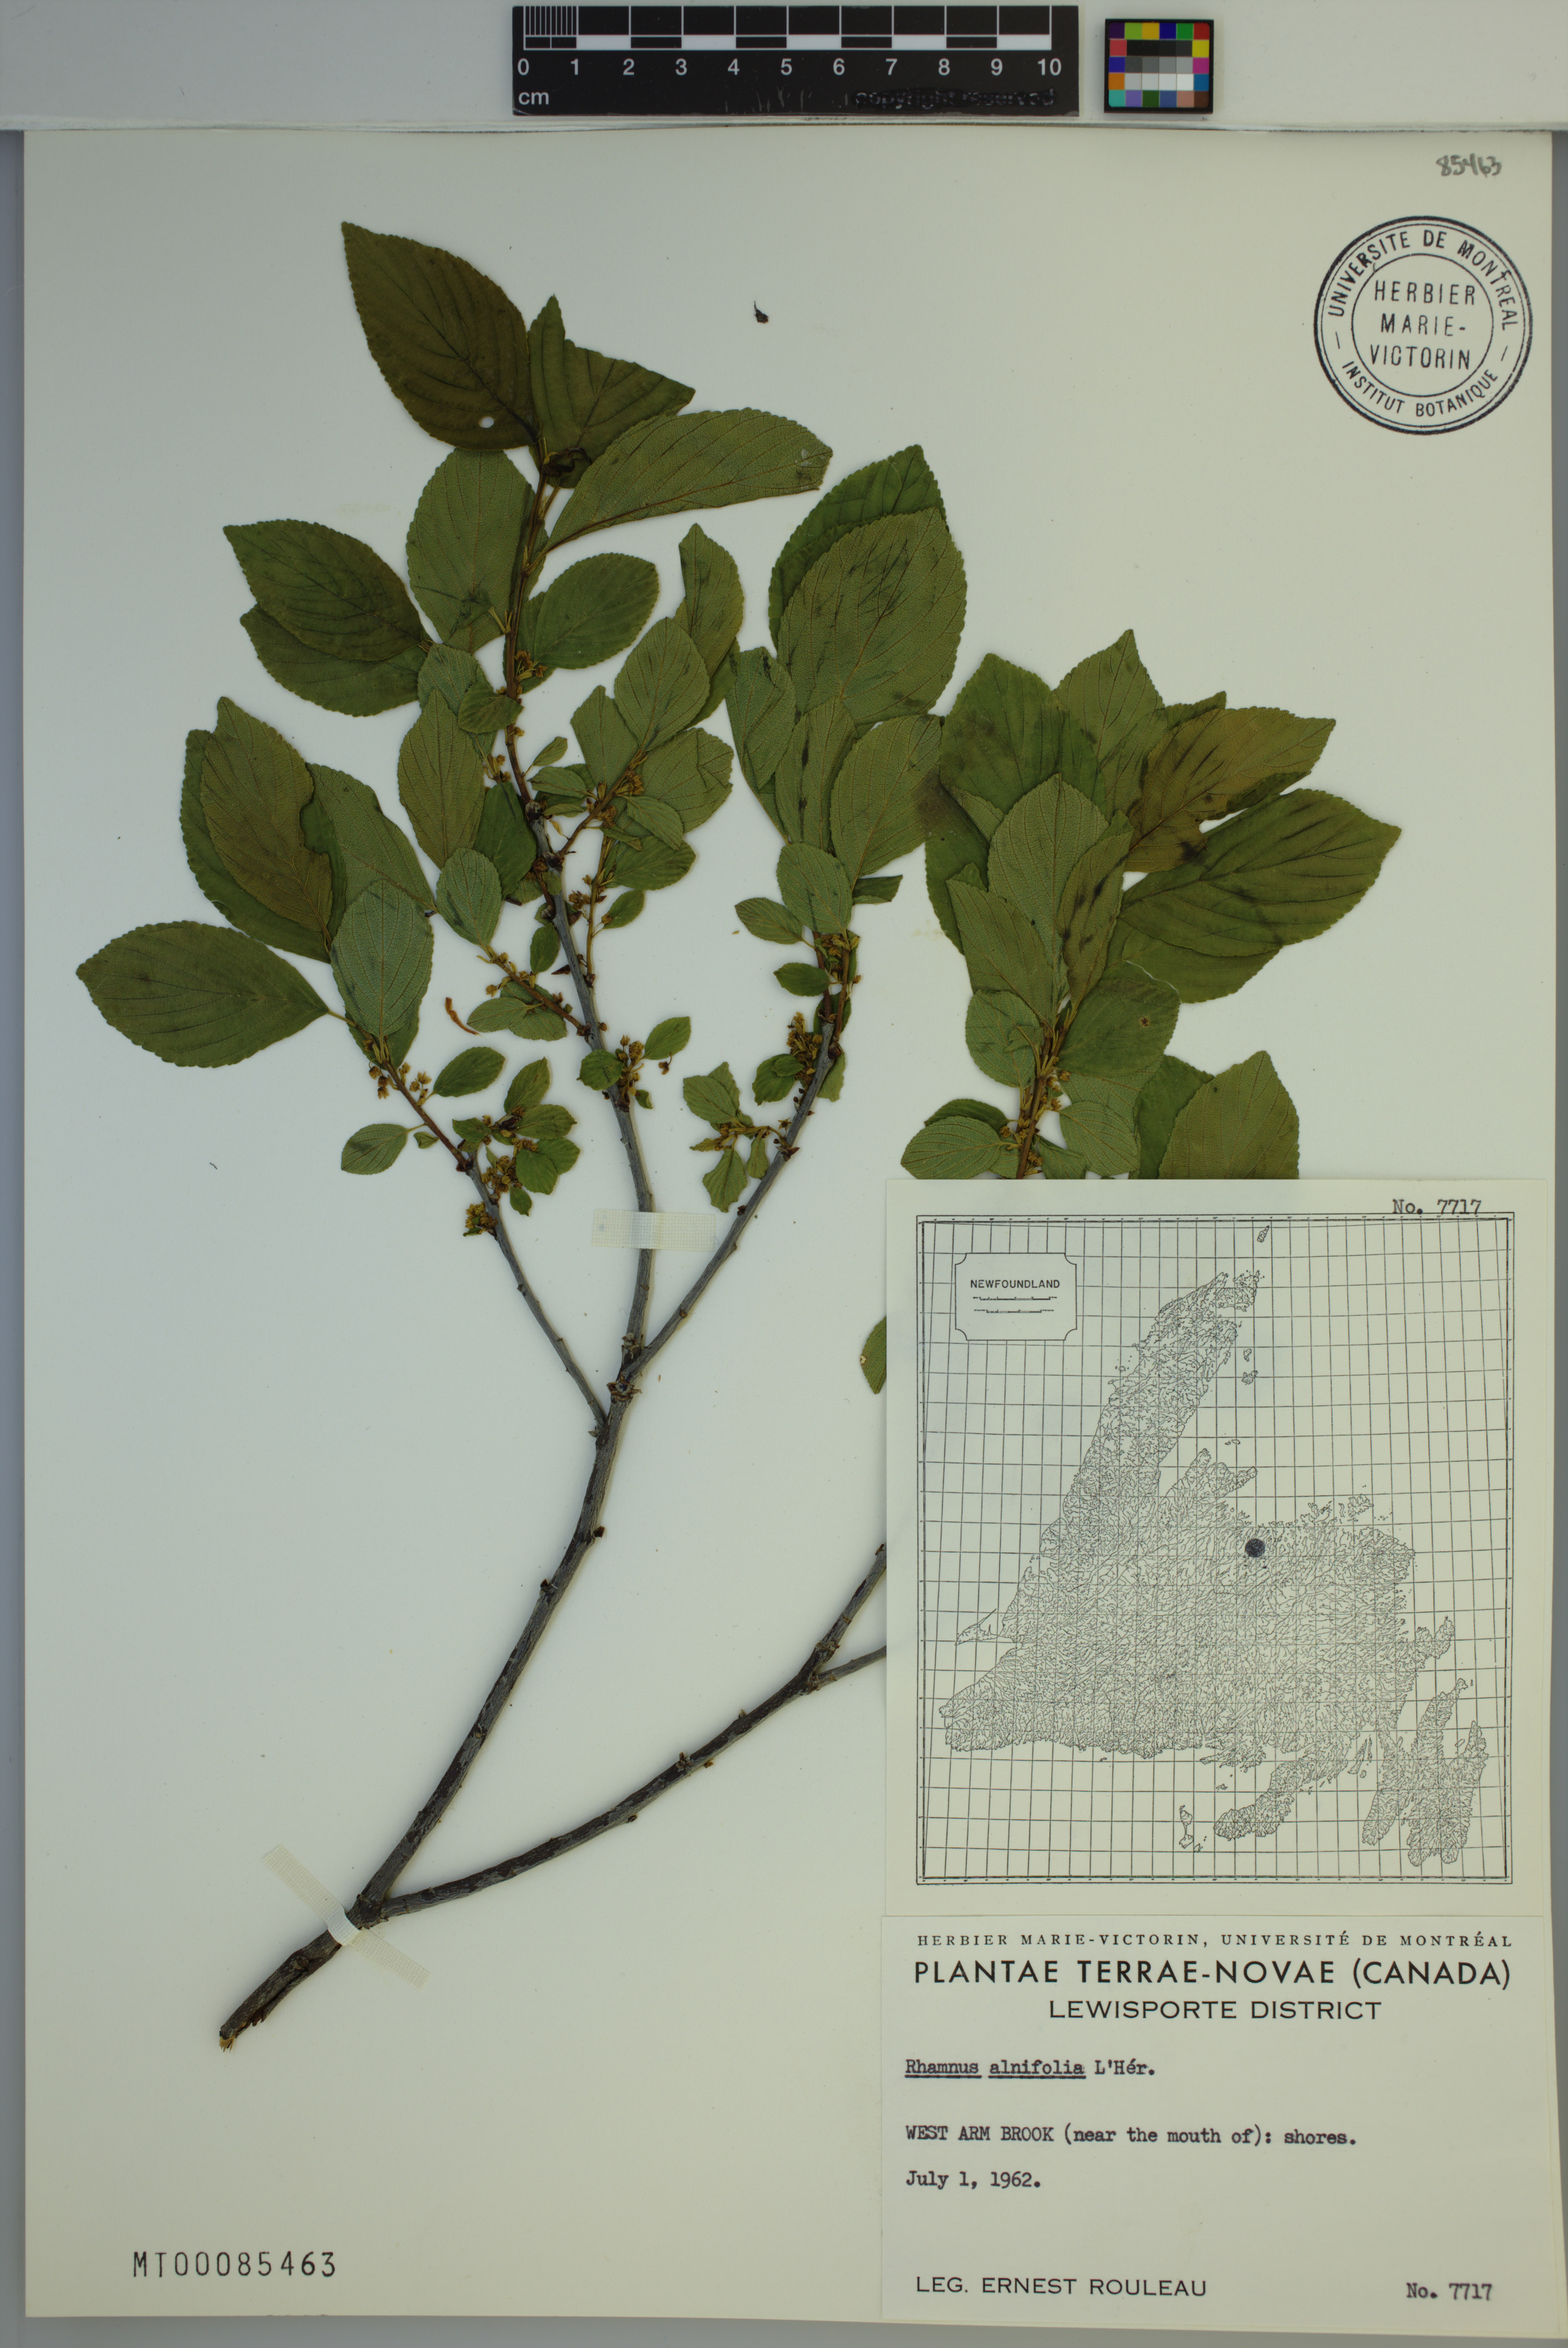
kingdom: Plantae
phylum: Tracheophyta
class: Magnoliopsida
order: Rosales
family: Rhamnaceae
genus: Endotropis
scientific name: Endotropis alnifolia
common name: American alder-buckthorn
